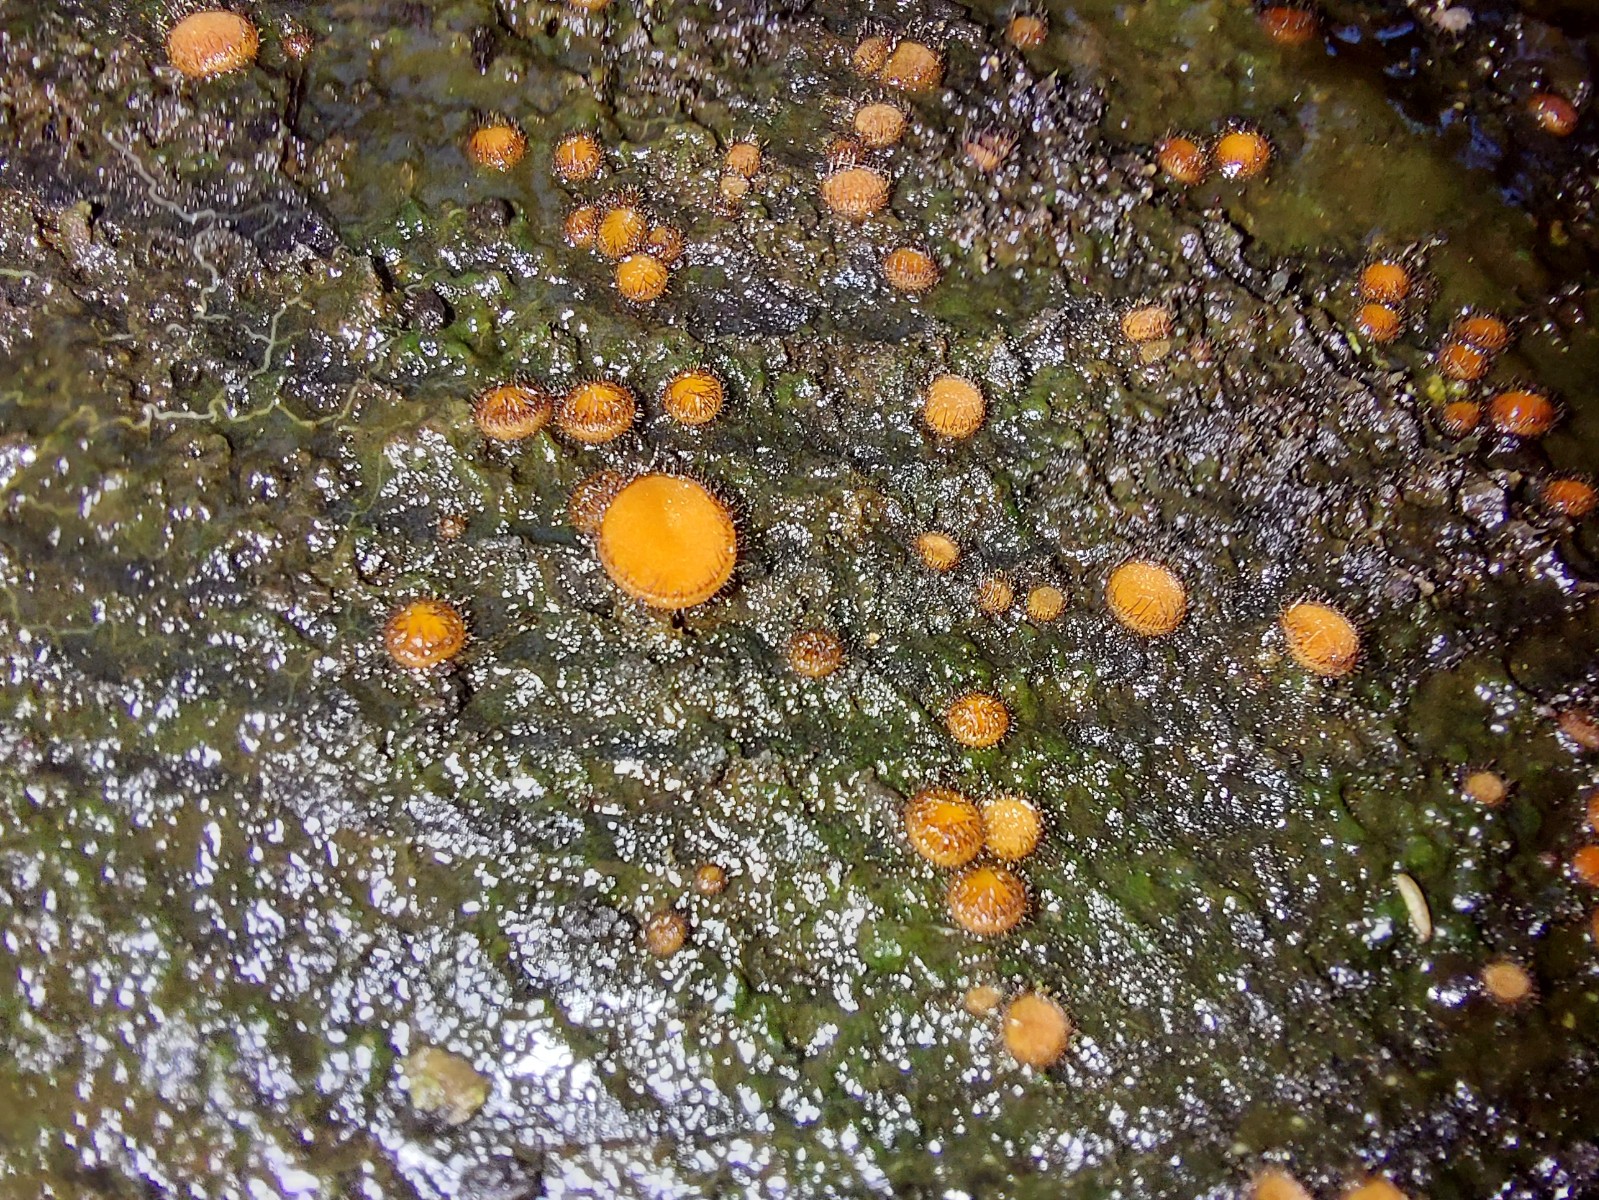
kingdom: Fungi
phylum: Ascomycota
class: Pezizomycetes
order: Pezizales
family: Pyronemataceae
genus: Scutellinia
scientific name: Scutellinia
